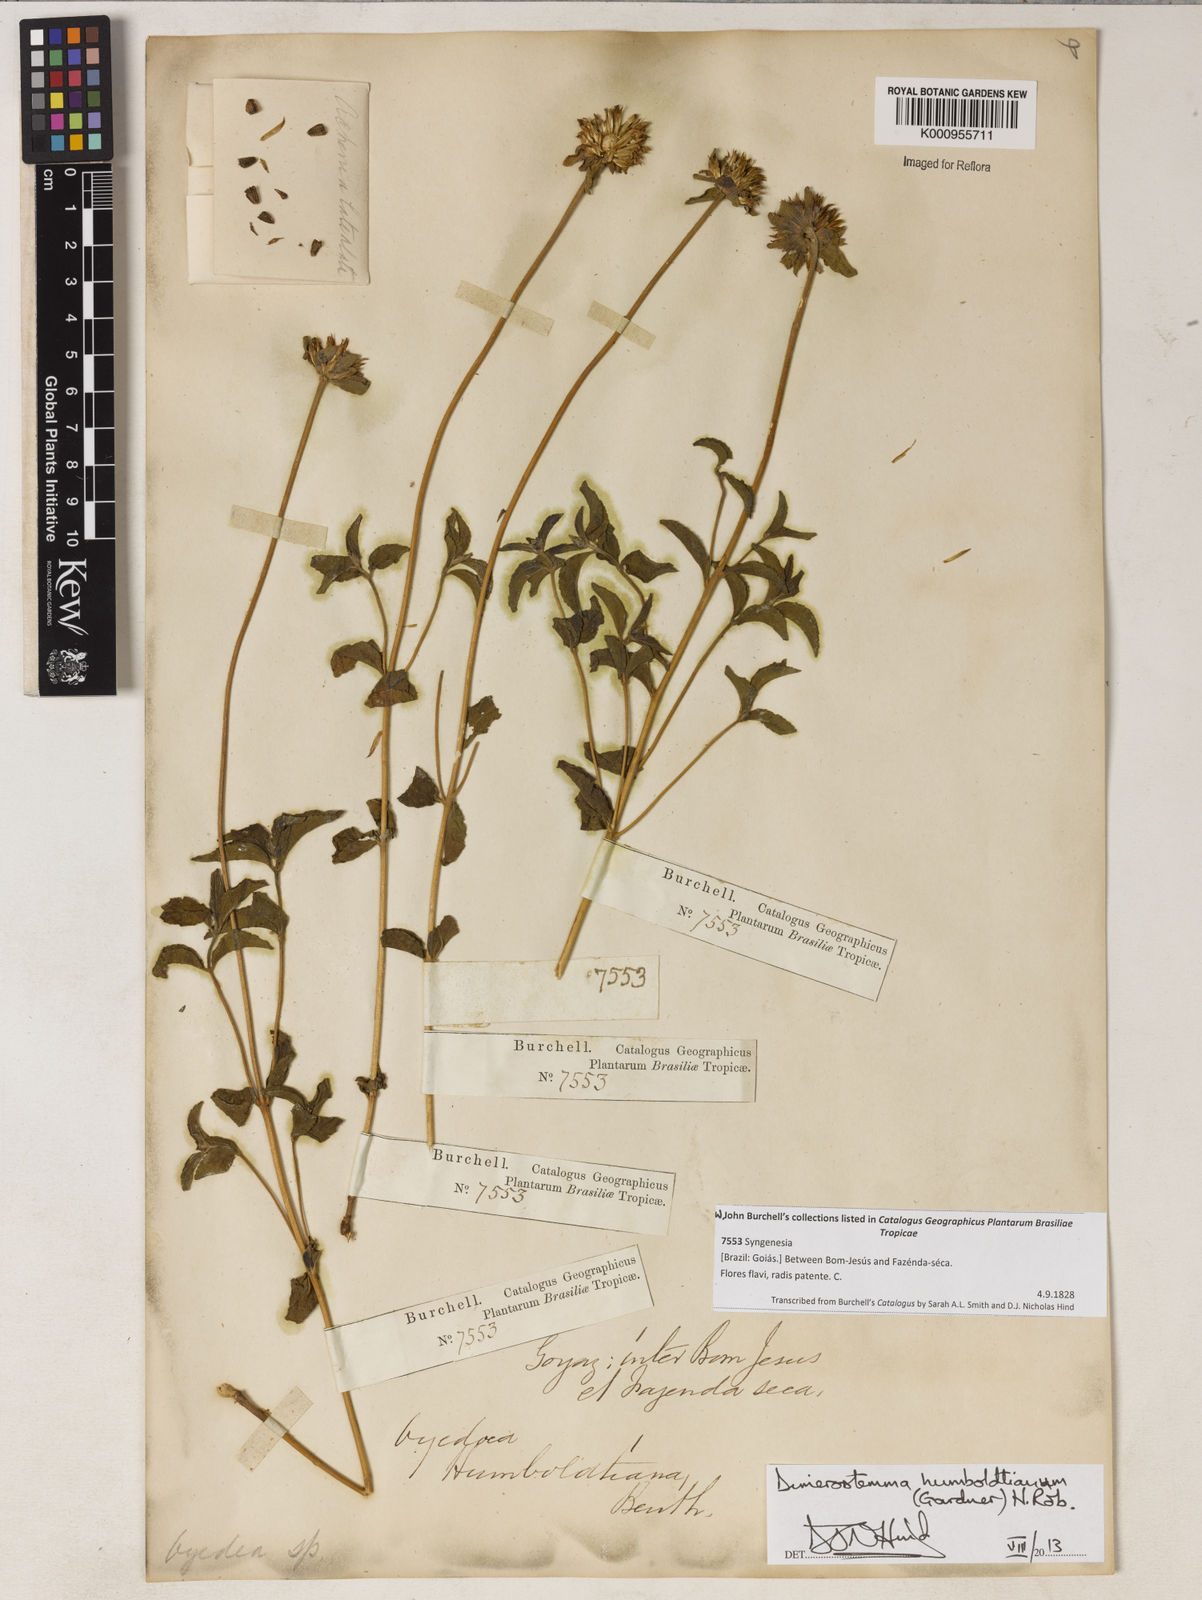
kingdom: Plantae
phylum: Tracheophyta
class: Magnoliopsida
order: Asterales
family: Asteraceae
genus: Dimerostemma
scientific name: Dimerostemma humboldtianum
